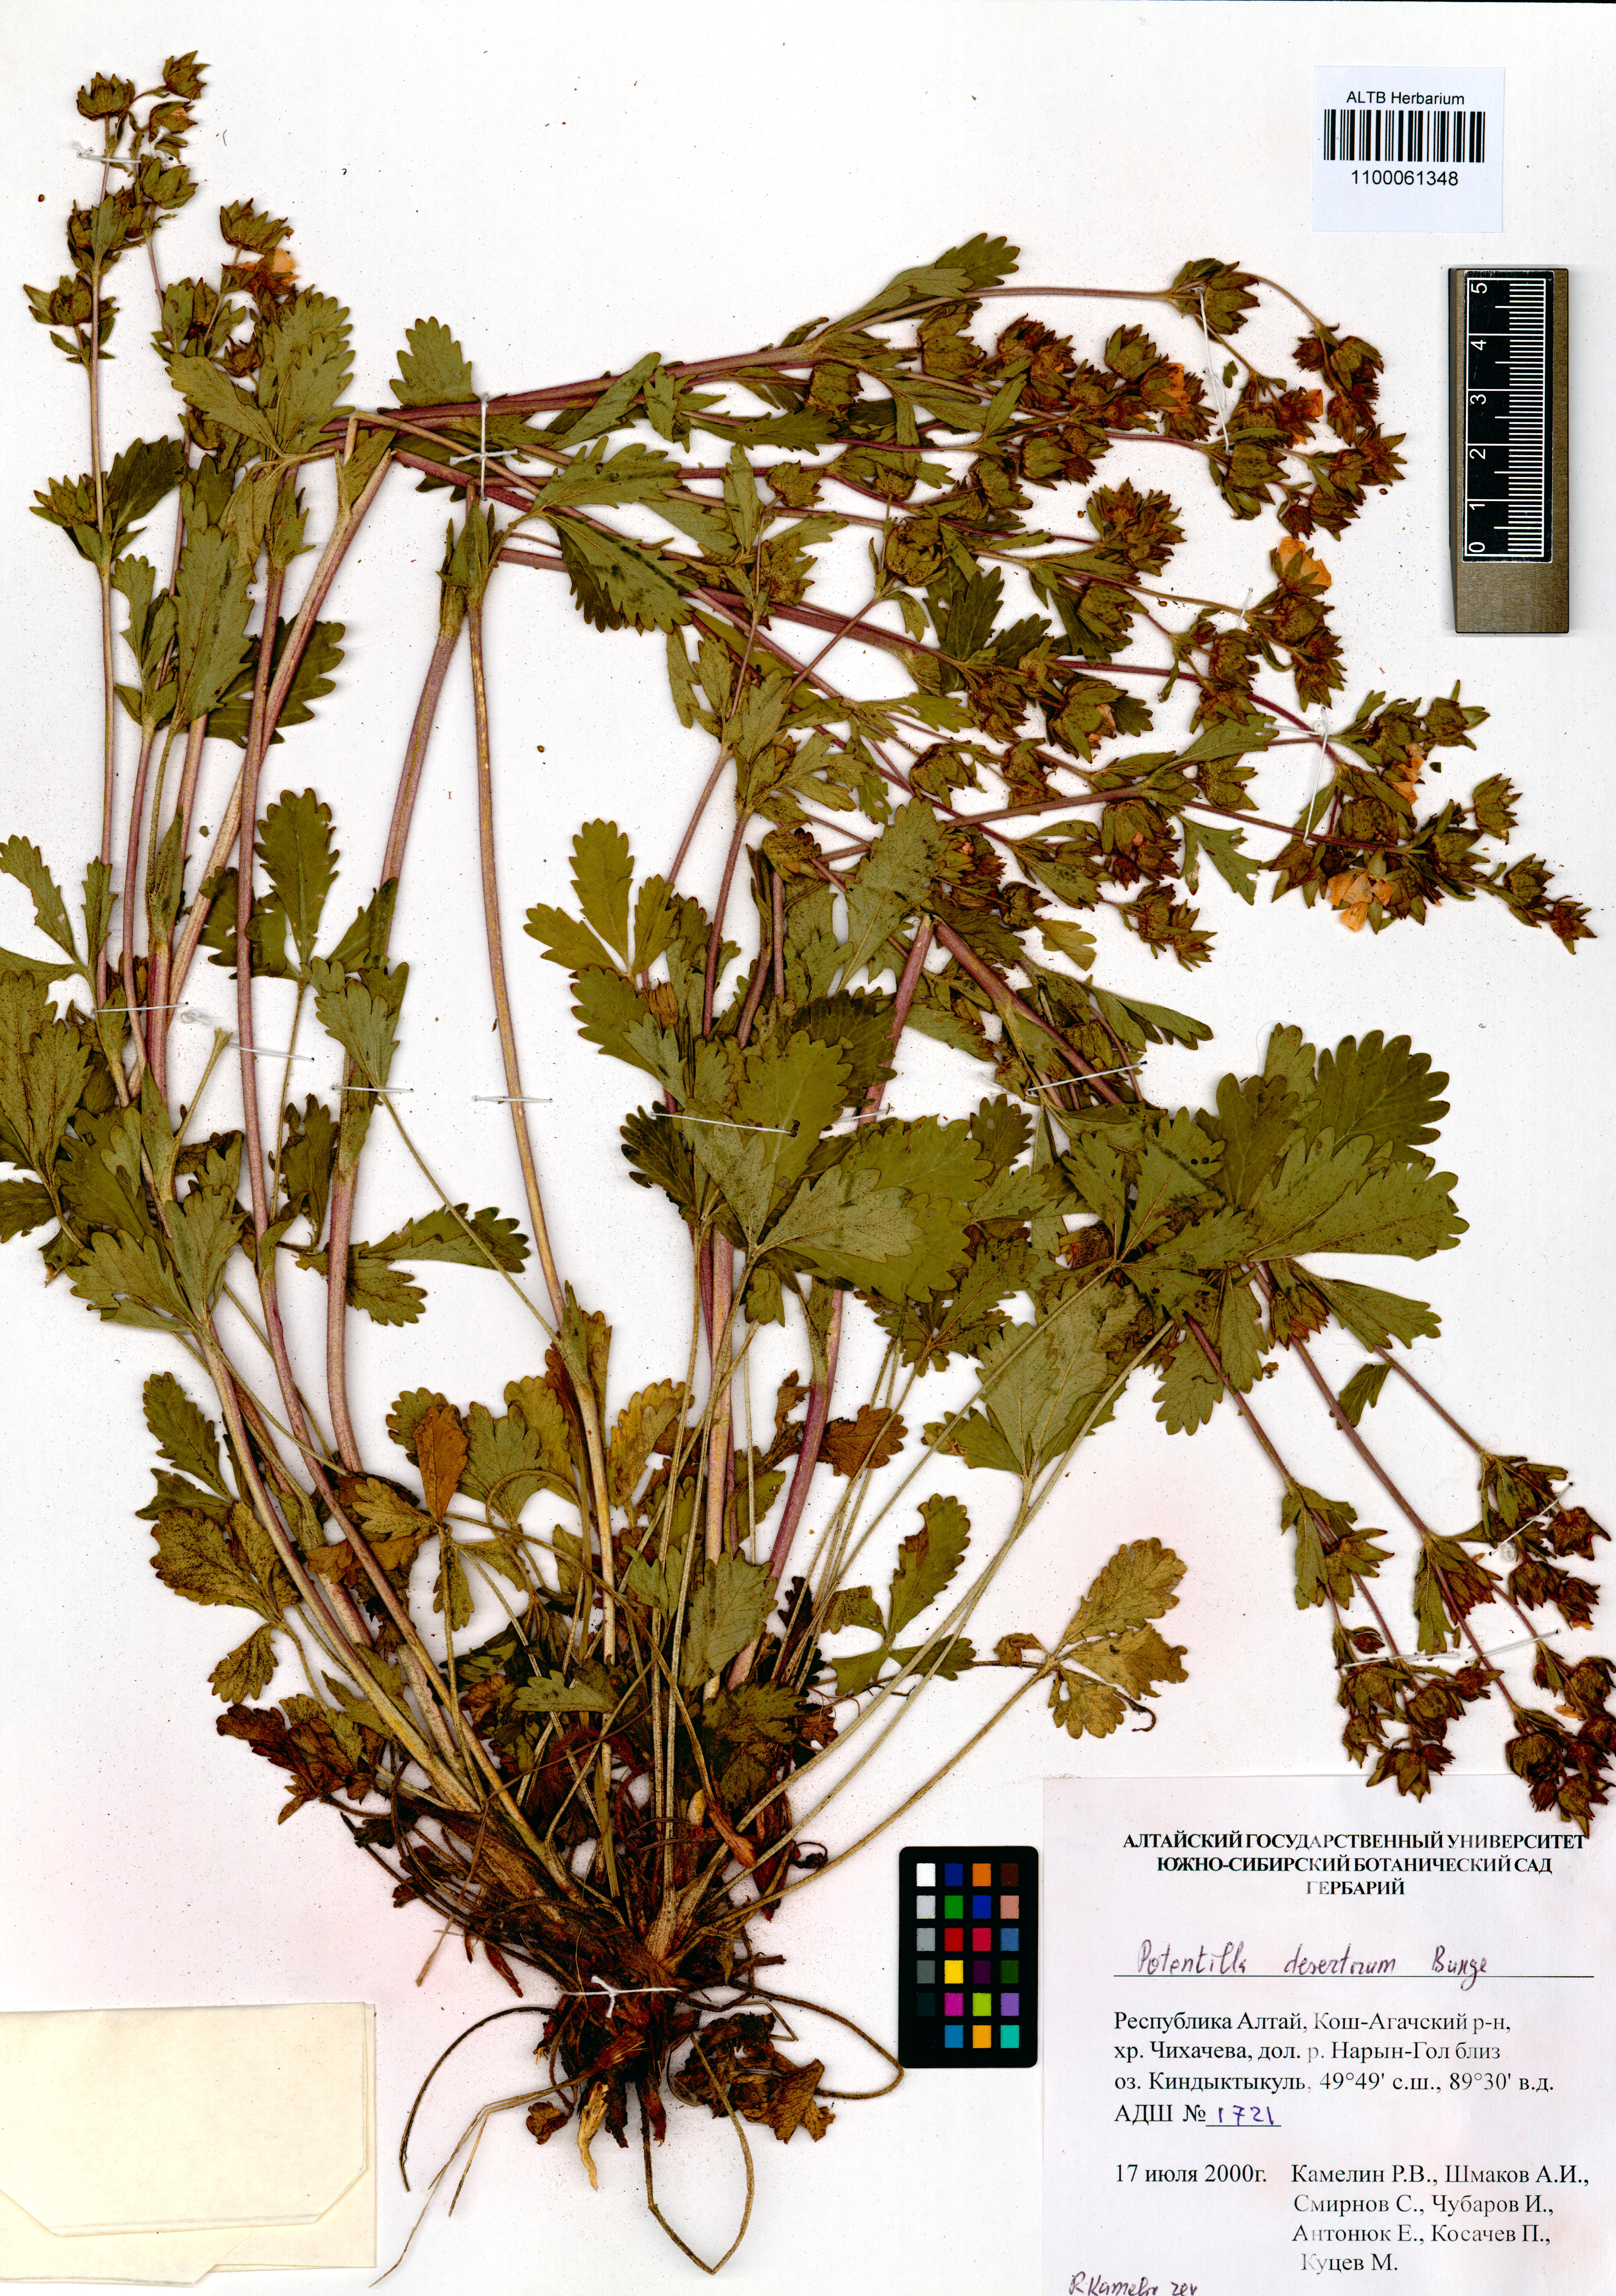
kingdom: Plantae
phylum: Tracheophyta
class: Magnoliopsida
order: Rosales
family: Rosaceae
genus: Potentilla
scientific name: Potentilla desertorum
